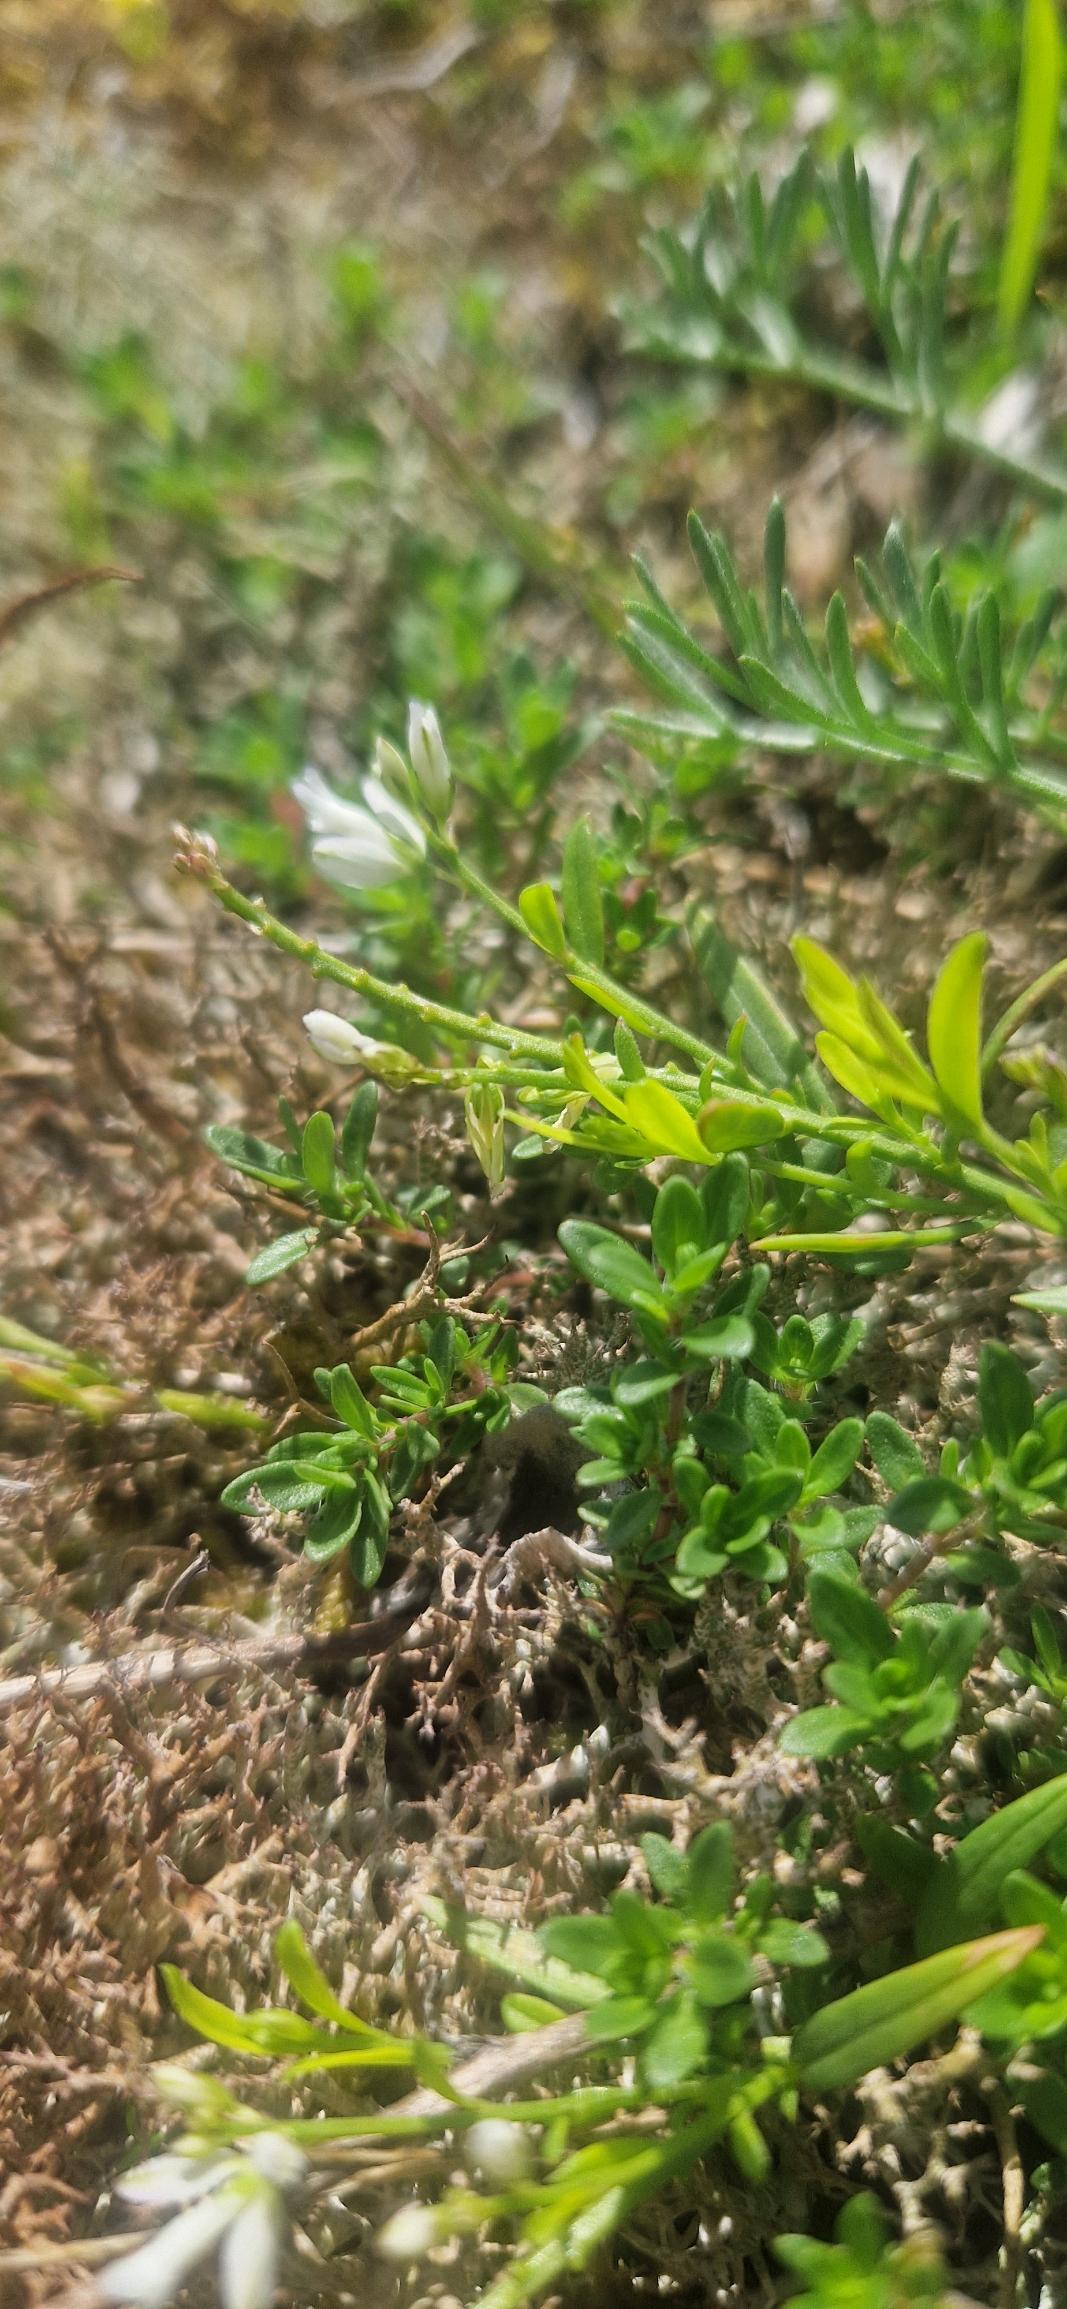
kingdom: Plantae
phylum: Tracheophyta
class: Magnoliopsida
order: Fabales
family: Polygalaceae
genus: Polygala
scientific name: Polygala vulgaris
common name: Almindelig mælkeurt
